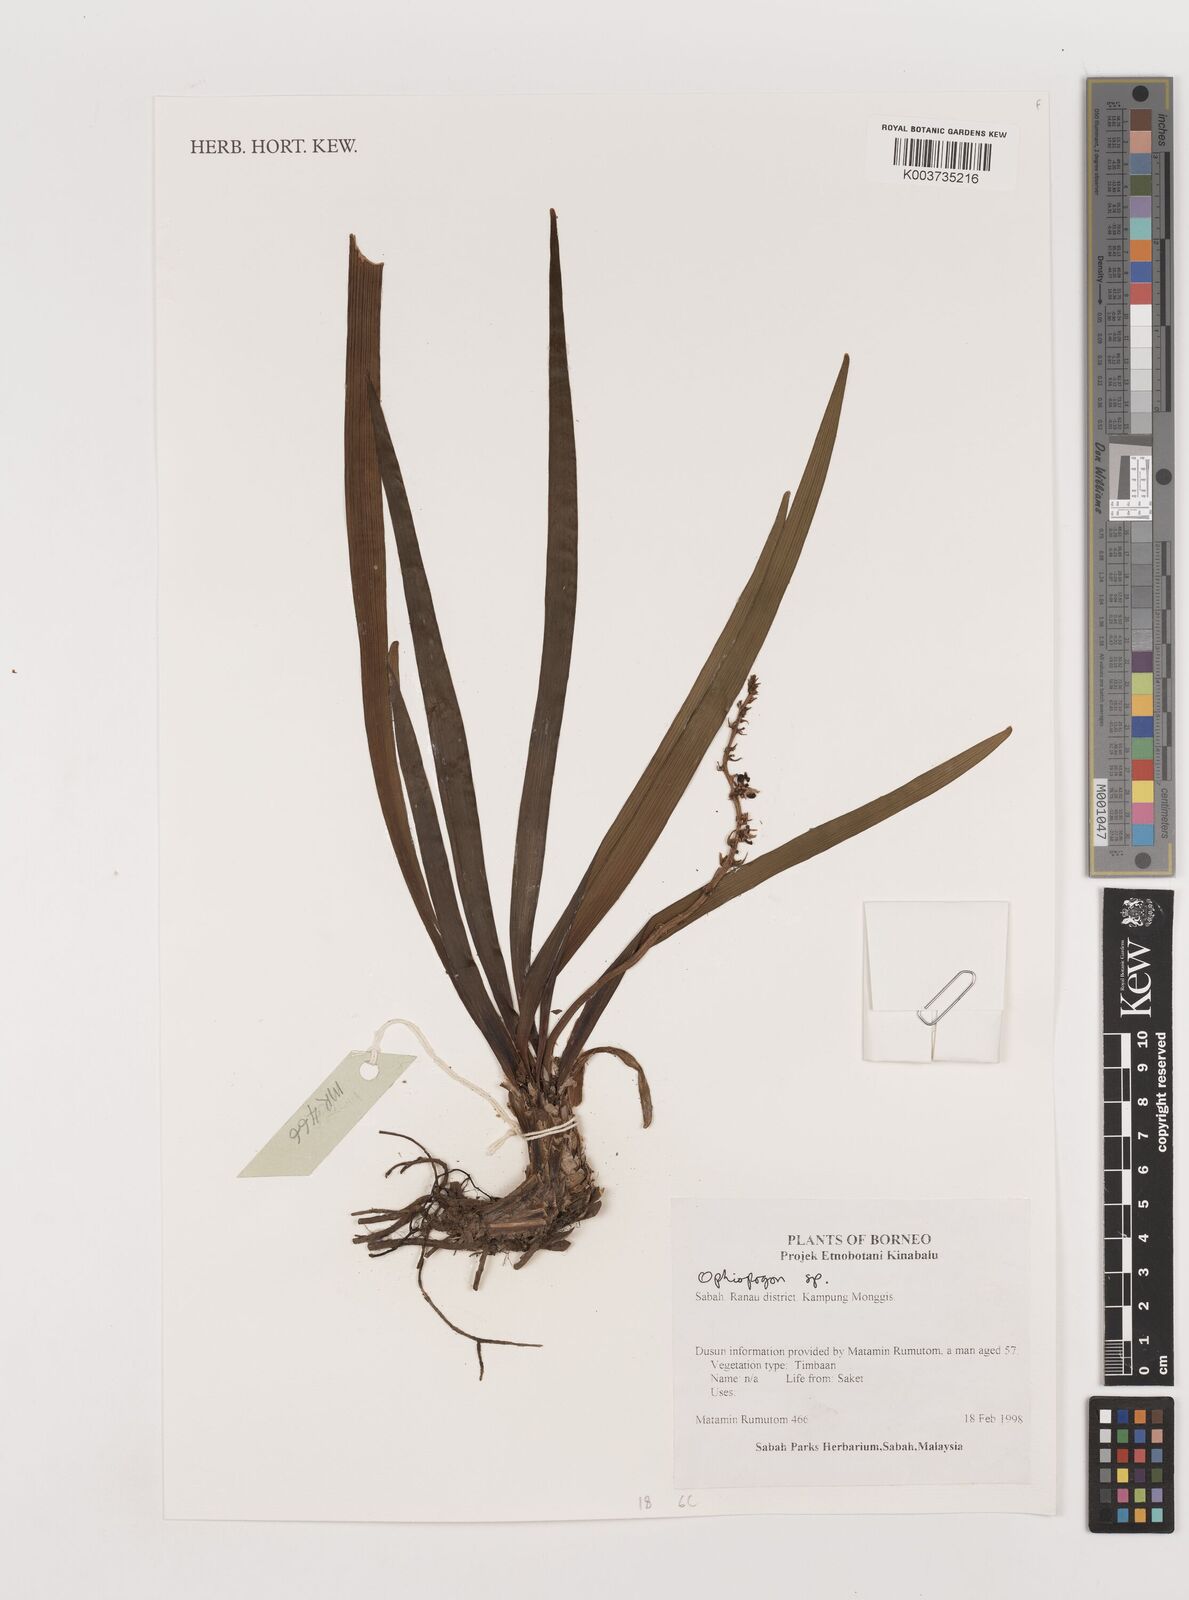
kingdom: Plantae
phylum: Tracheophyta
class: Liliopsida
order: Asparagales
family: Asparagaceae
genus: Ophiopogon
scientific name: Ophiopogon
